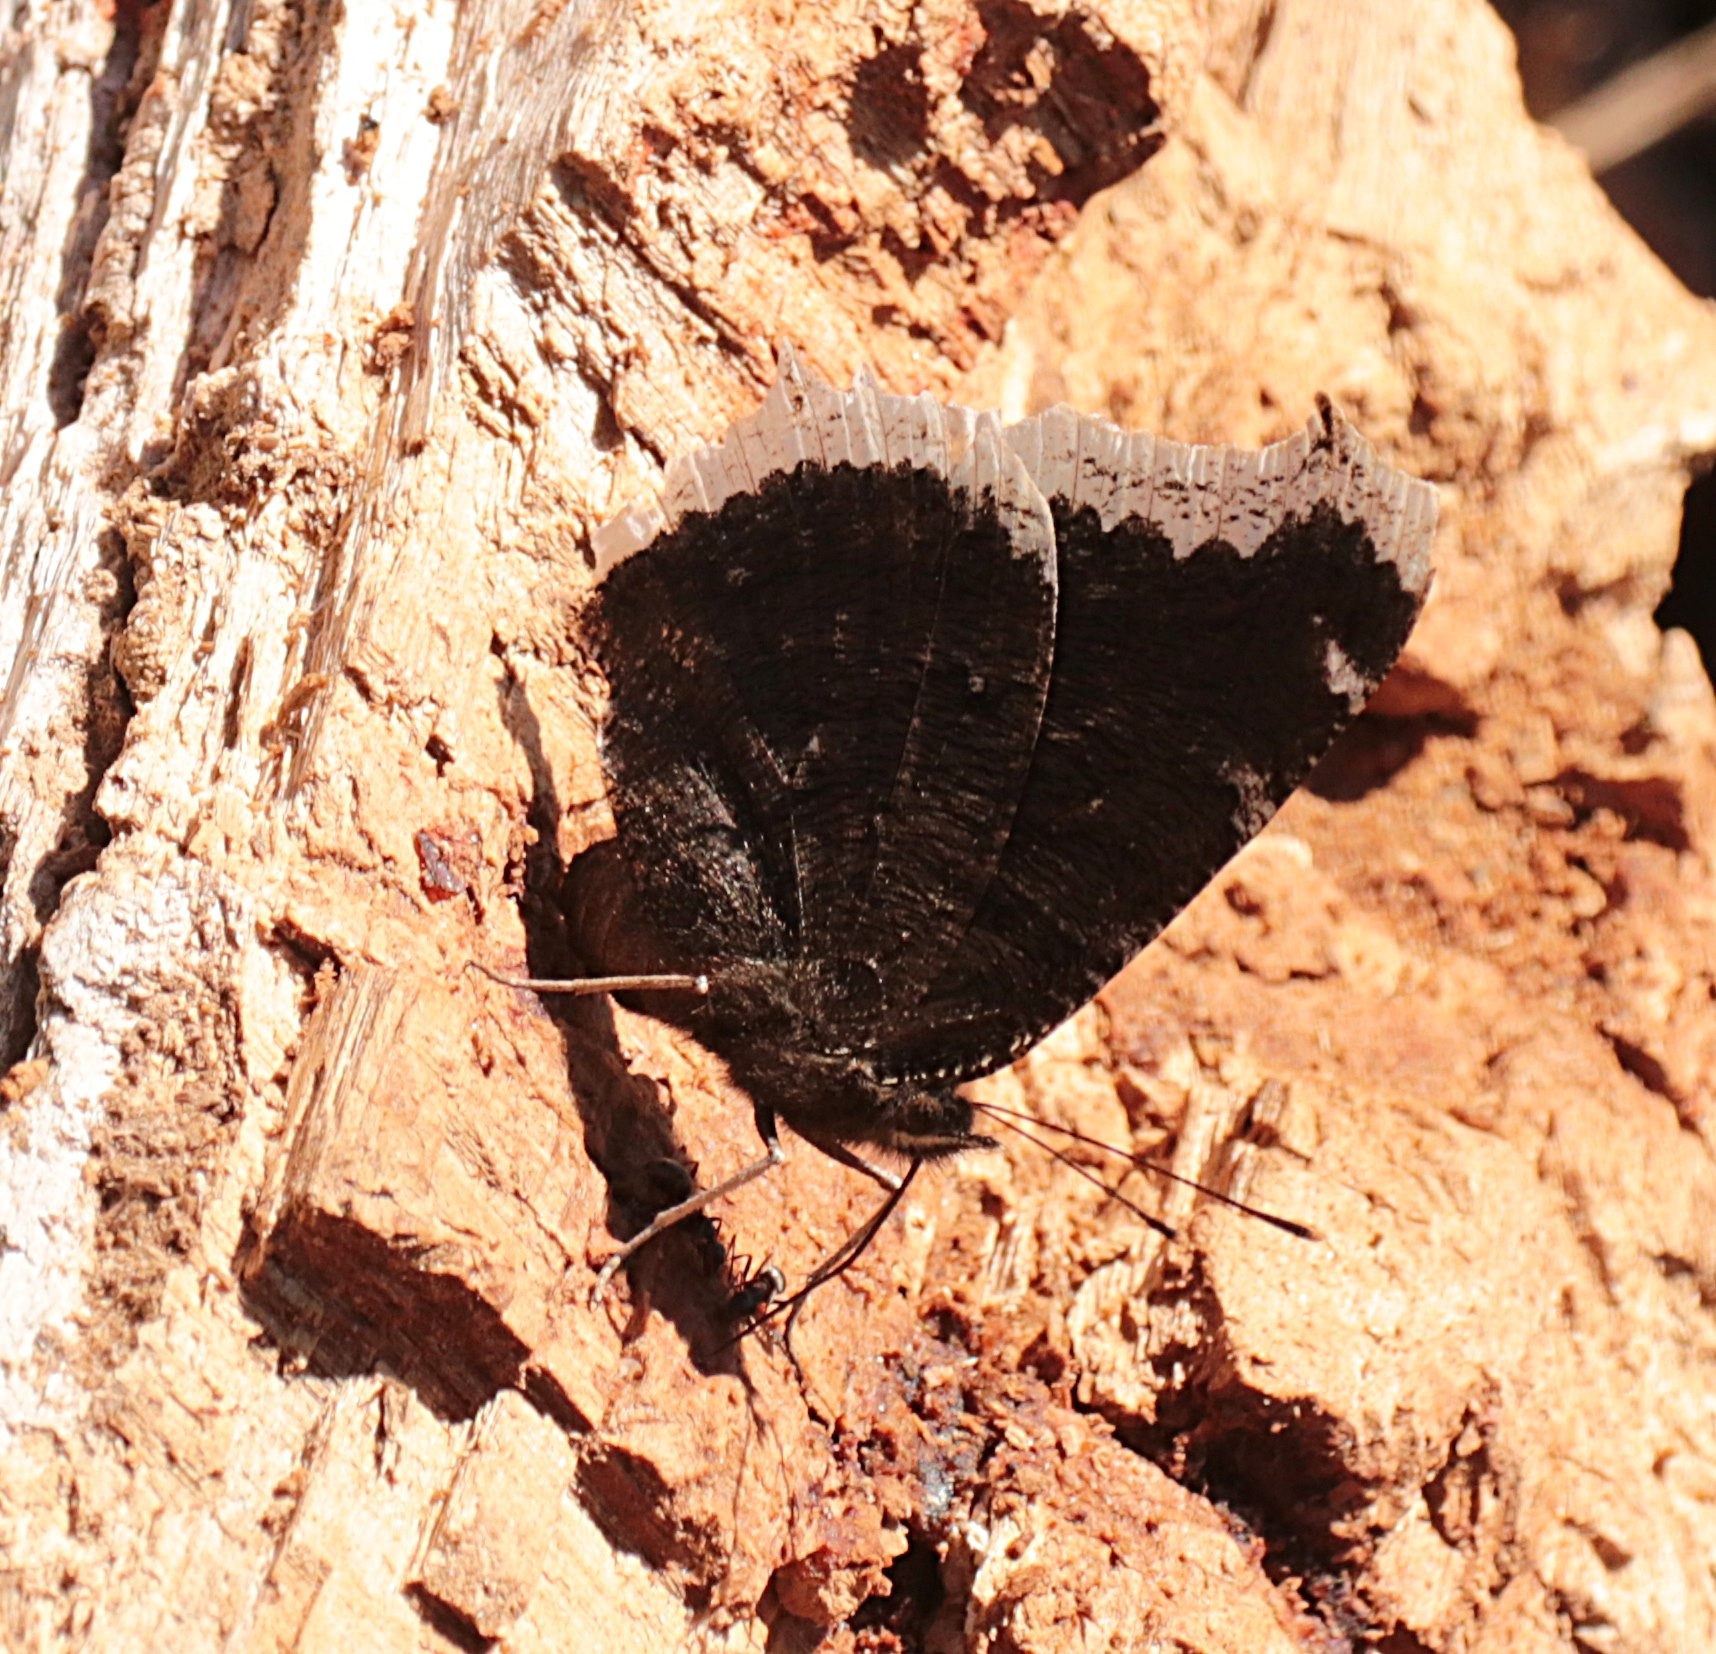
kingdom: Animalia
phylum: Arthropoda
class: Insecta
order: Lepidoptera
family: Nymphalidae
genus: Nymphalis
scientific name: Nymphalis antiopa
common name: Sørgekåbe
